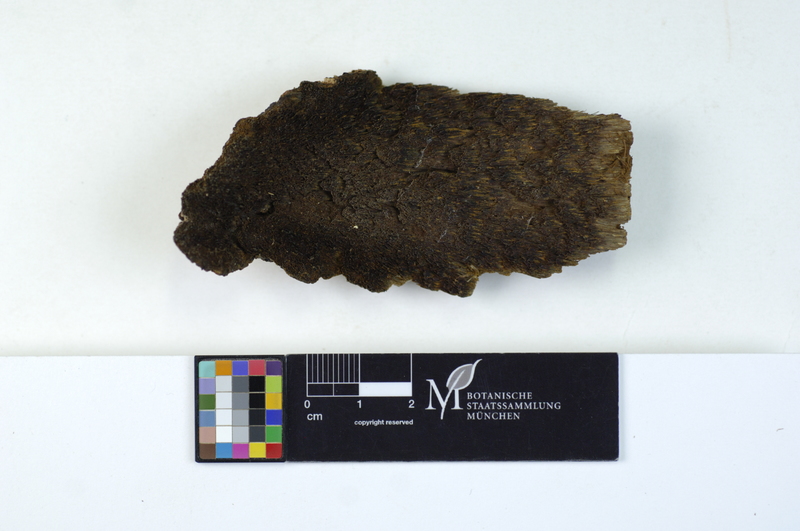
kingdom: Plantae
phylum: Tracheophyta
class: Magnoliopsida
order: Fagales
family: Fagaceae
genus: Fagus
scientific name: Fagus sylvatica
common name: Beech
